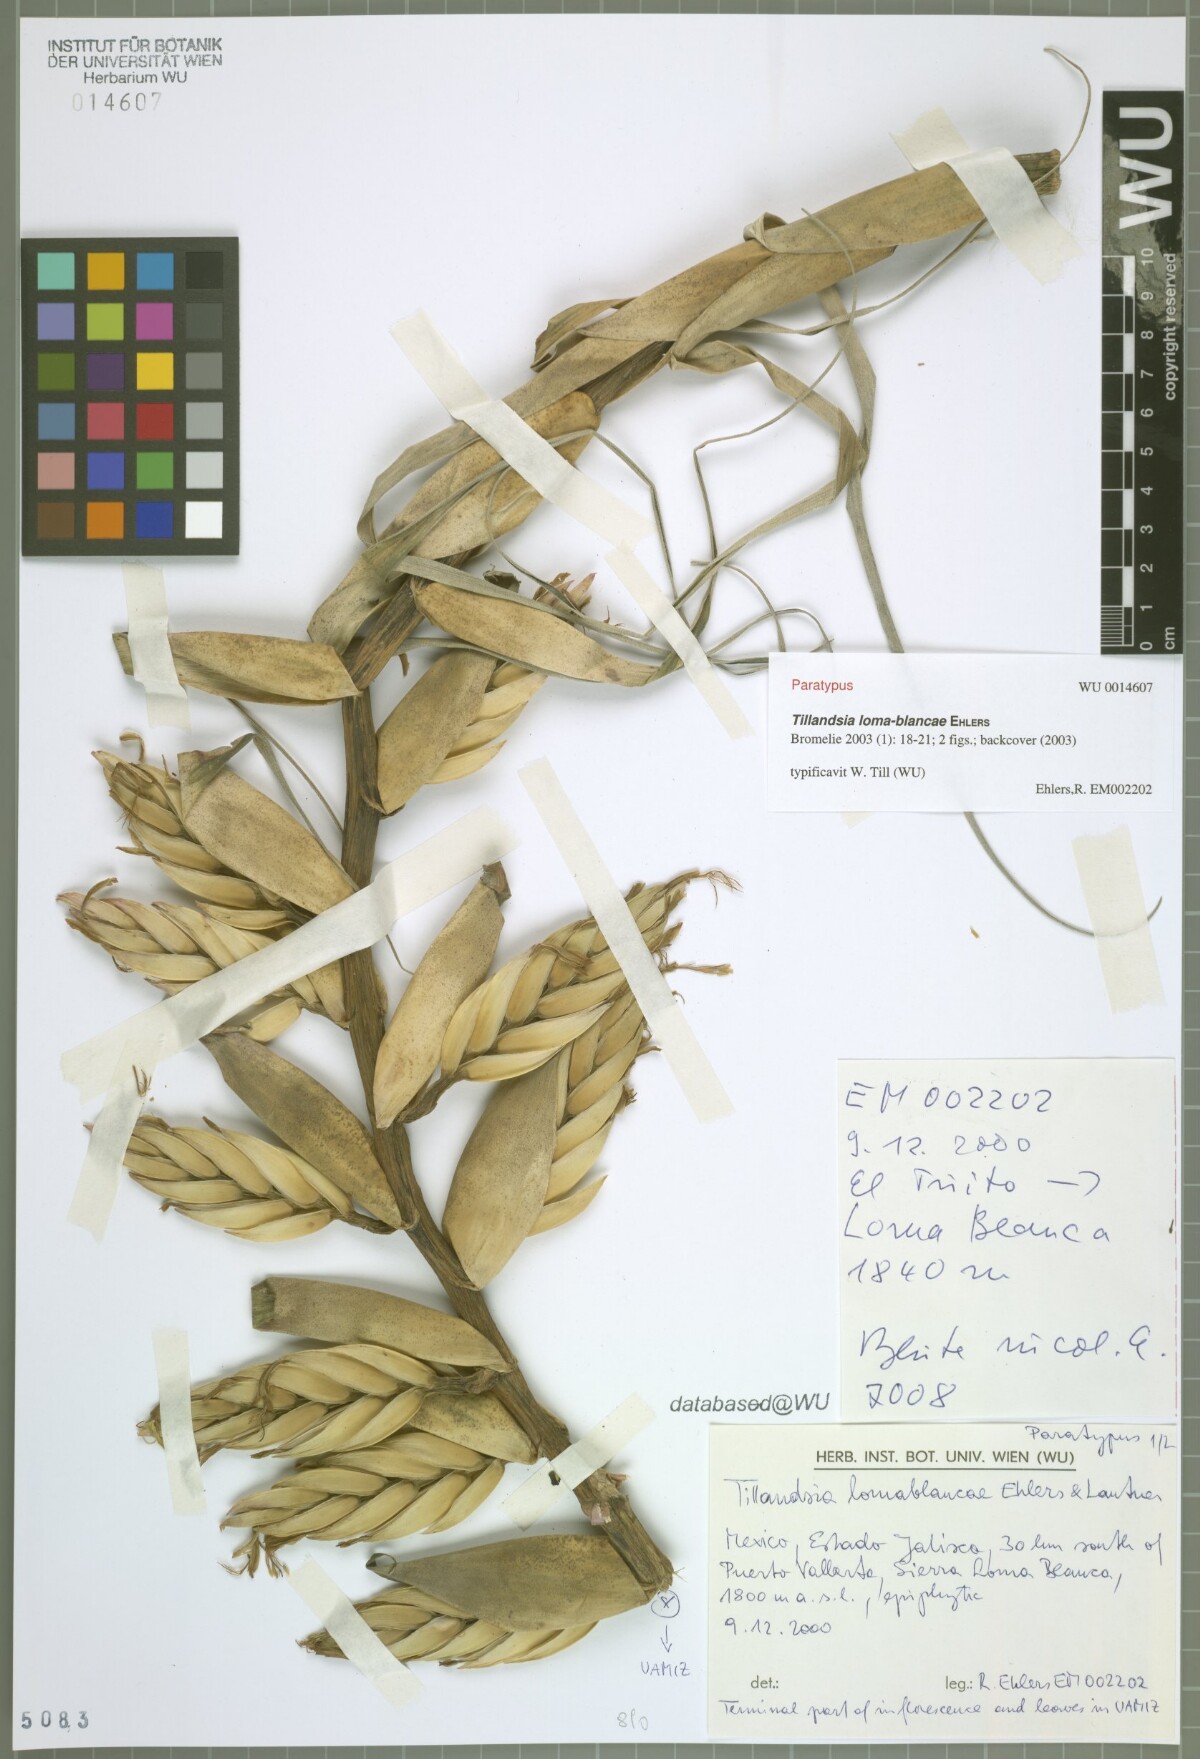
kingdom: Plantae
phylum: Tracheophyta
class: Liliopsida
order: Poales
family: Bromeliaceae
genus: Tillandsia
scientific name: Tillandsia loma-blancae
